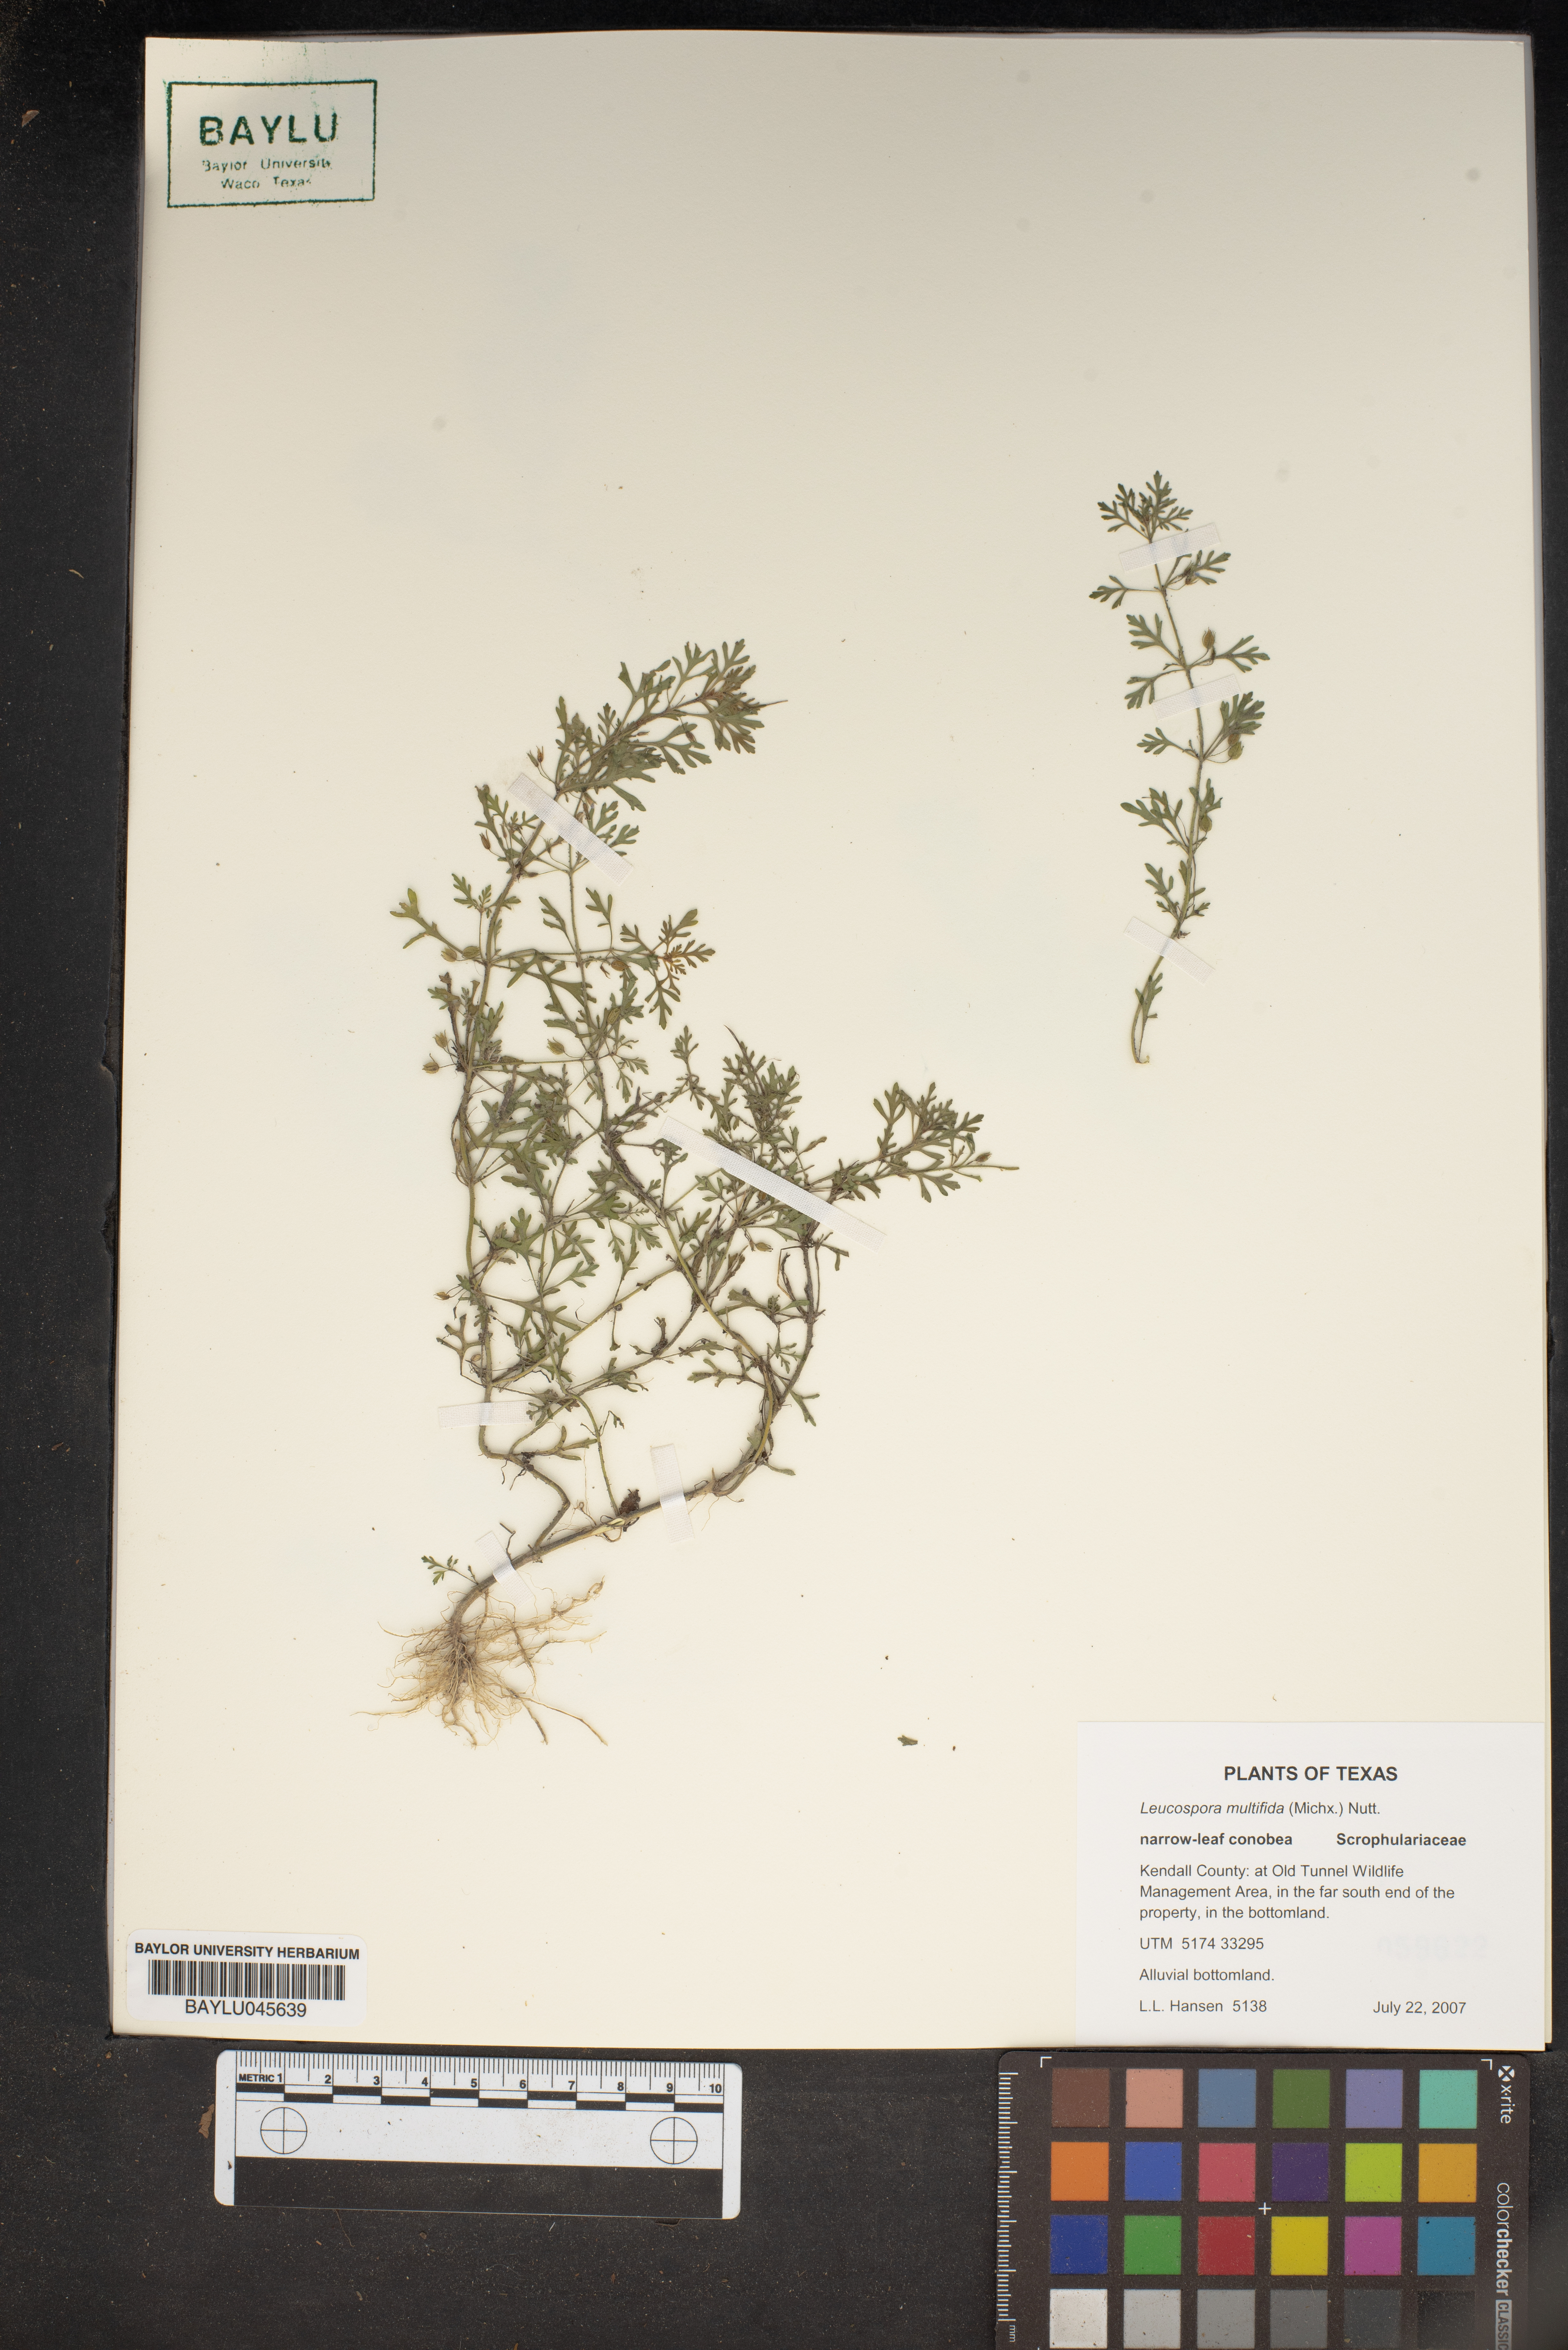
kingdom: Plantae
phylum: Tracheophyta
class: Magnoliopsida
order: Lamiales
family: Plantaginaceae
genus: Leucospora
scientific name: Leucospora multifida
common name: Narrow-leaf paleseed
